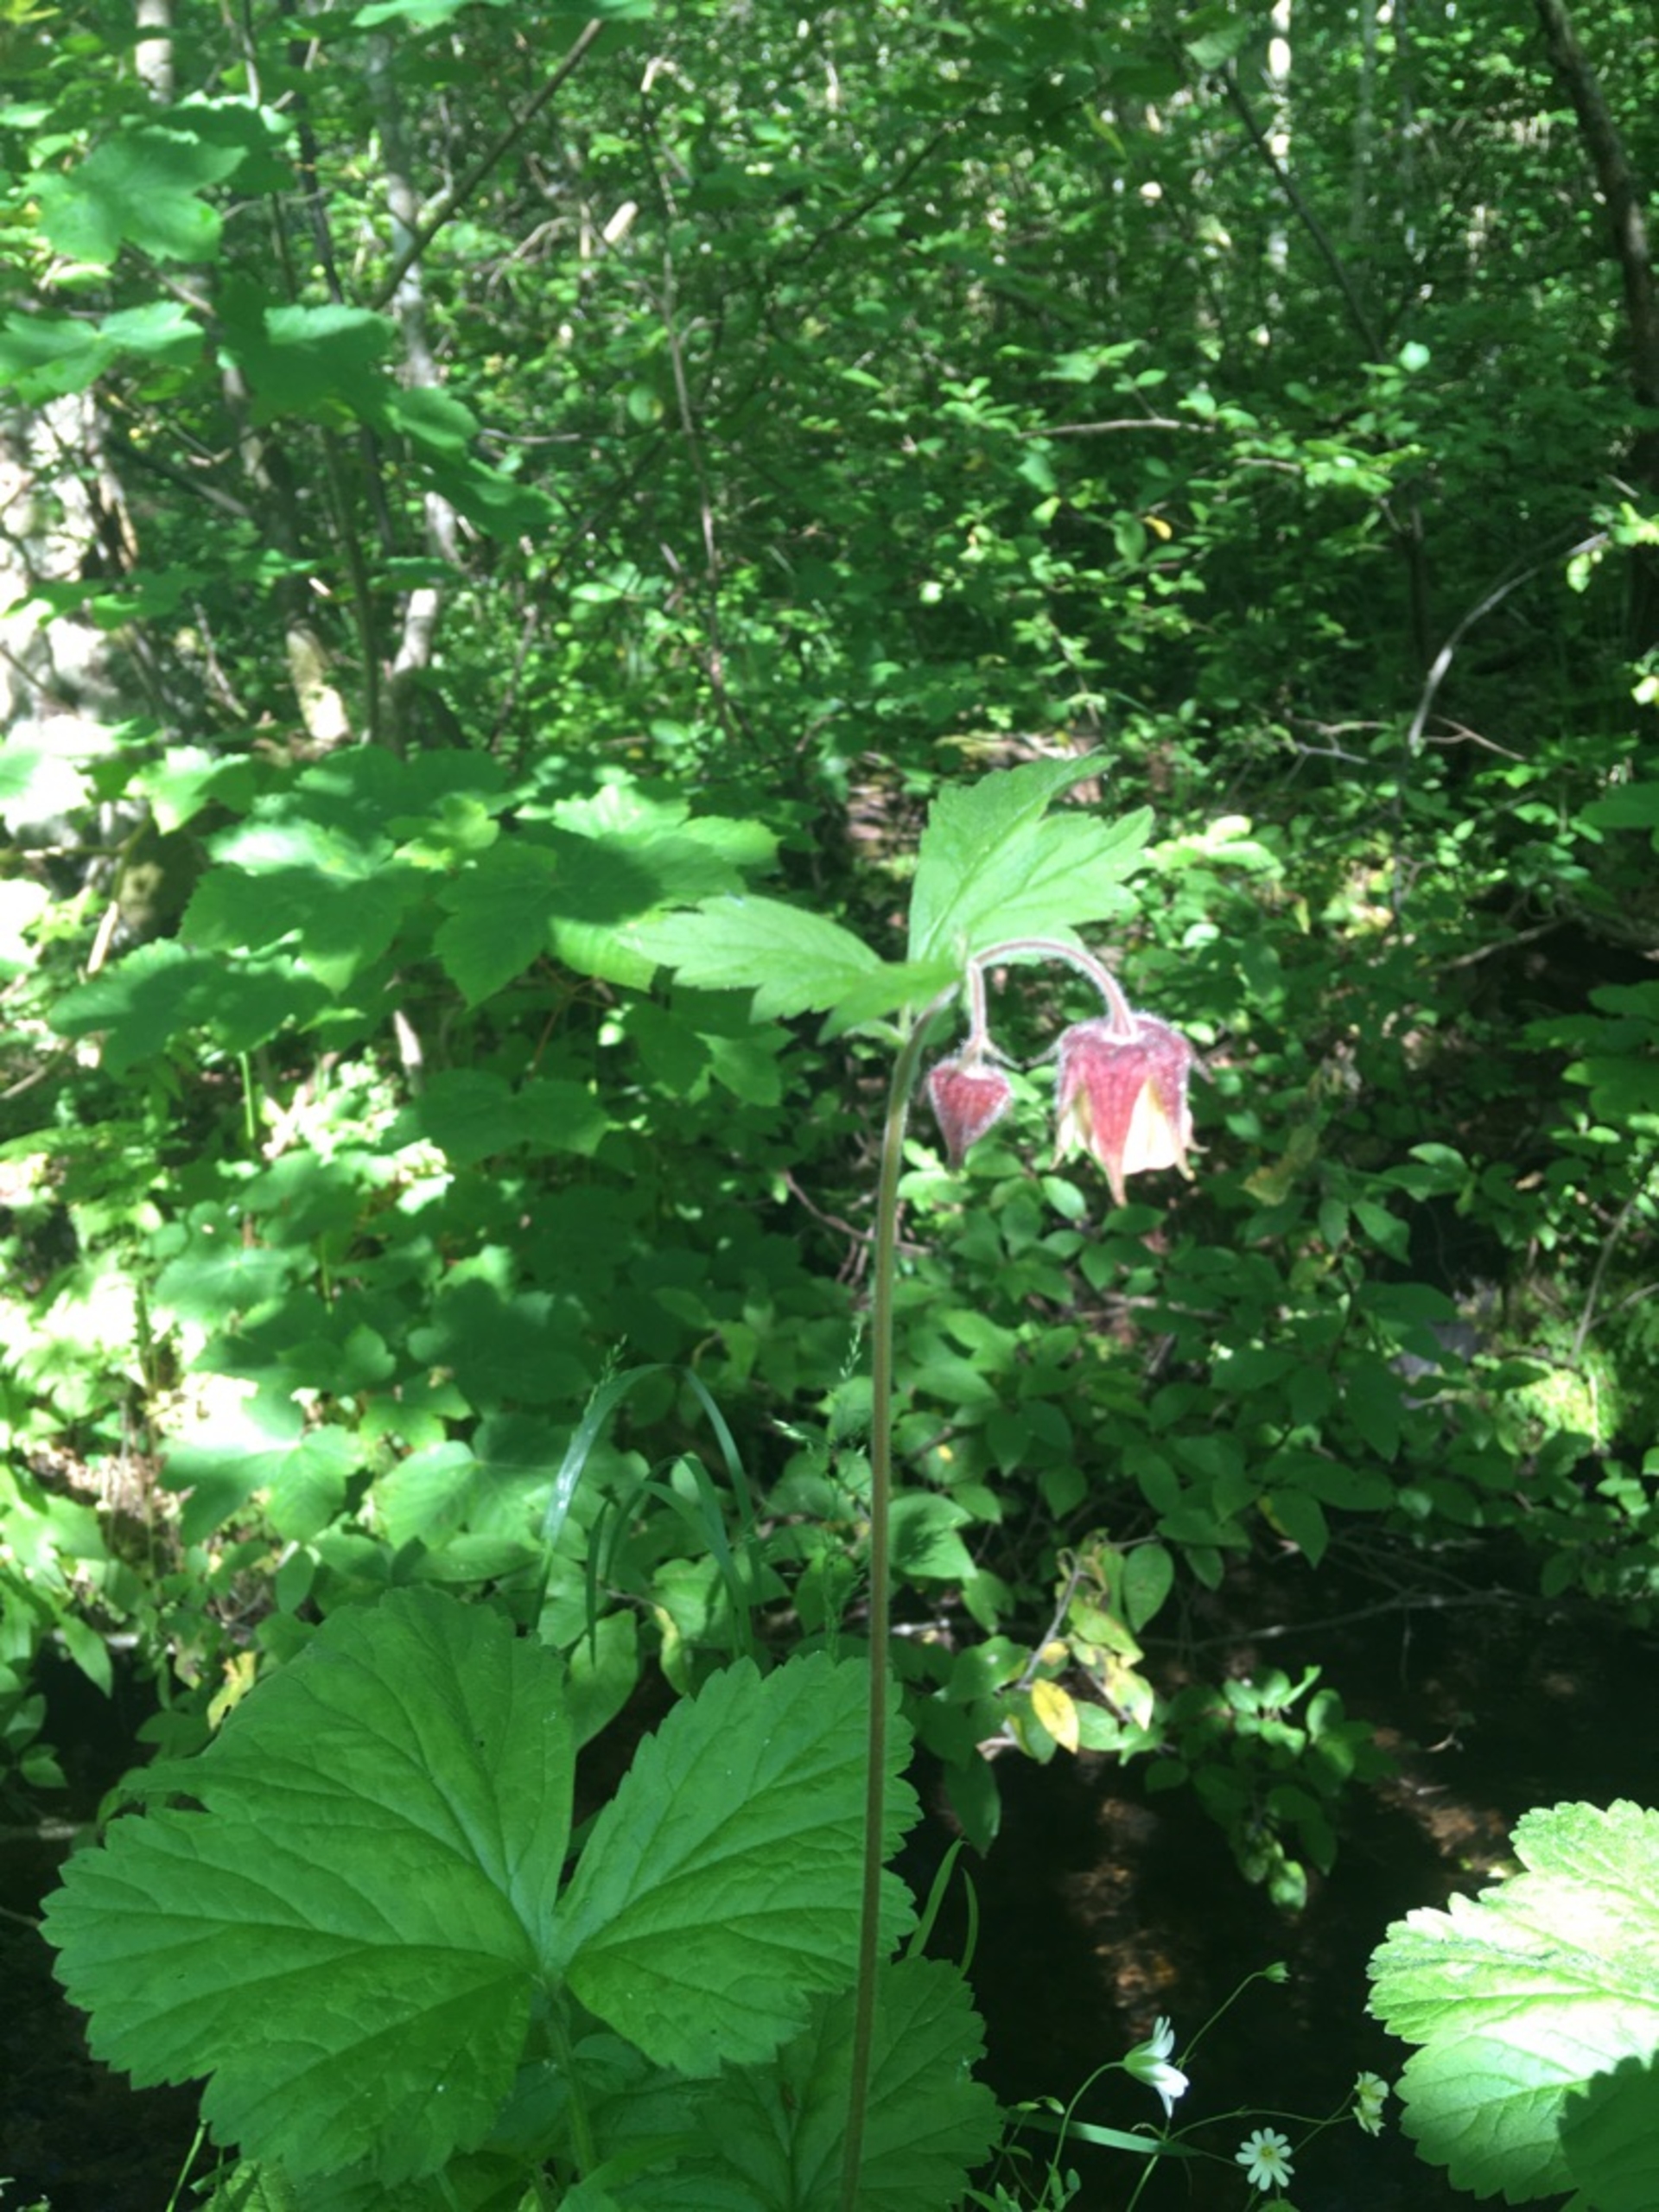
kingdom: Plantae
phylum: Tracheophyta
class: Magnoliopsida
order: Rosales
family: Rosaceae
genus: Geum
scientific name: Geum rivale
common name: Eng-nellikerod
